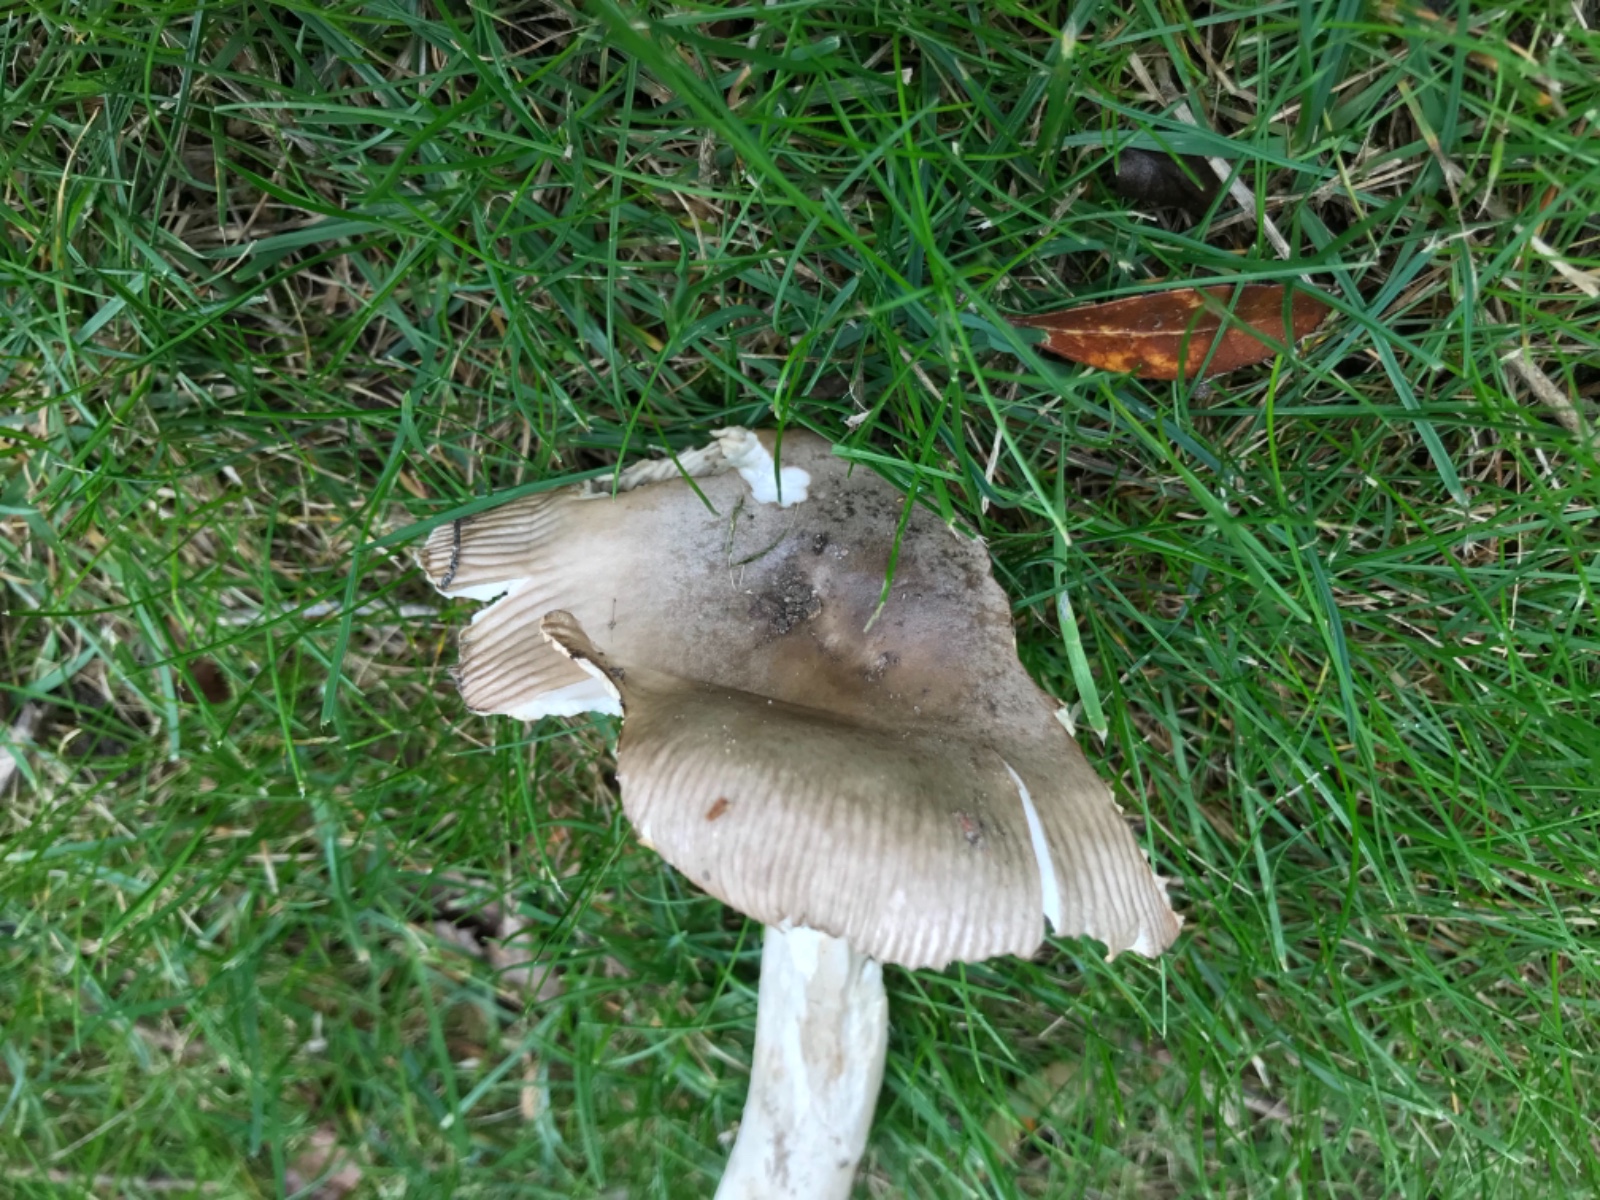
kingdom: Fungi
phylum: Basidiomycota
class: Agaricomycetes
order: Agaricales
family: Amanitaceae
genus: Amanita
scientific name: Amanita
